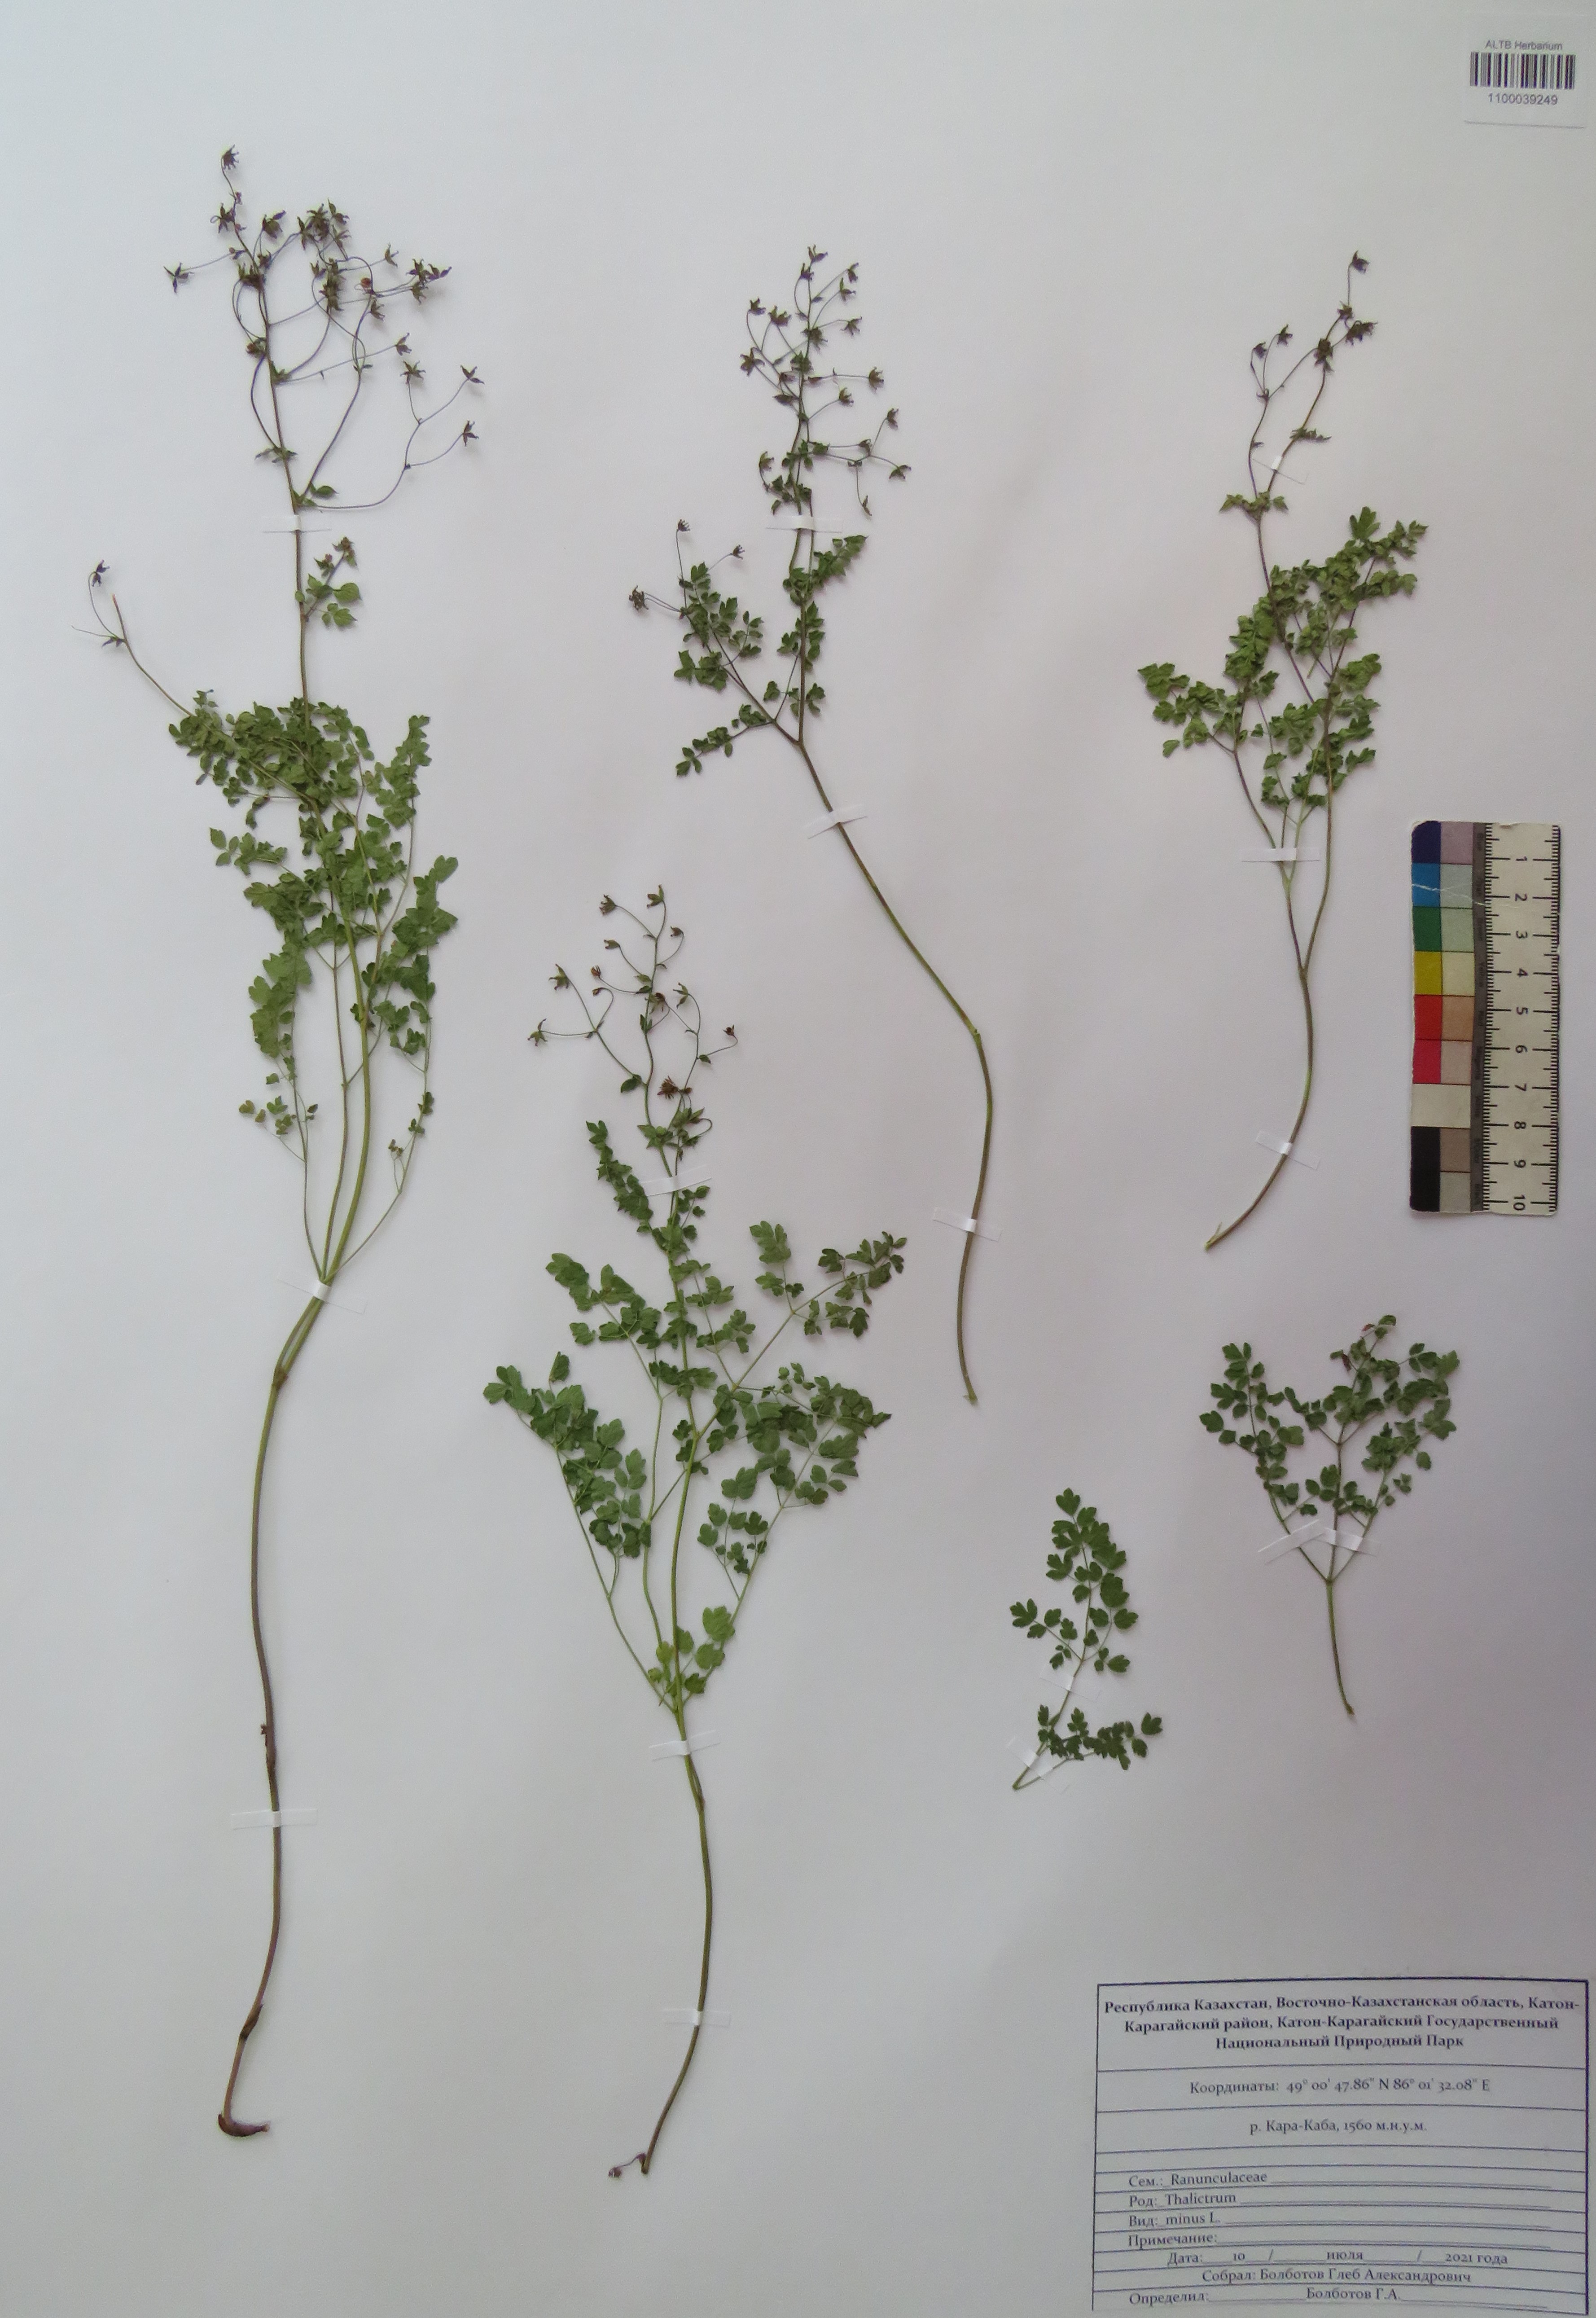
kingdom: Plantae
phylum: Tracheophyta
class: Magnoliopsida
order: Ranunculales
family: Ranunculaceae
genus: Thalictrum
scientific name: Thalictrum minus
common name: Lesser meadow-rue
